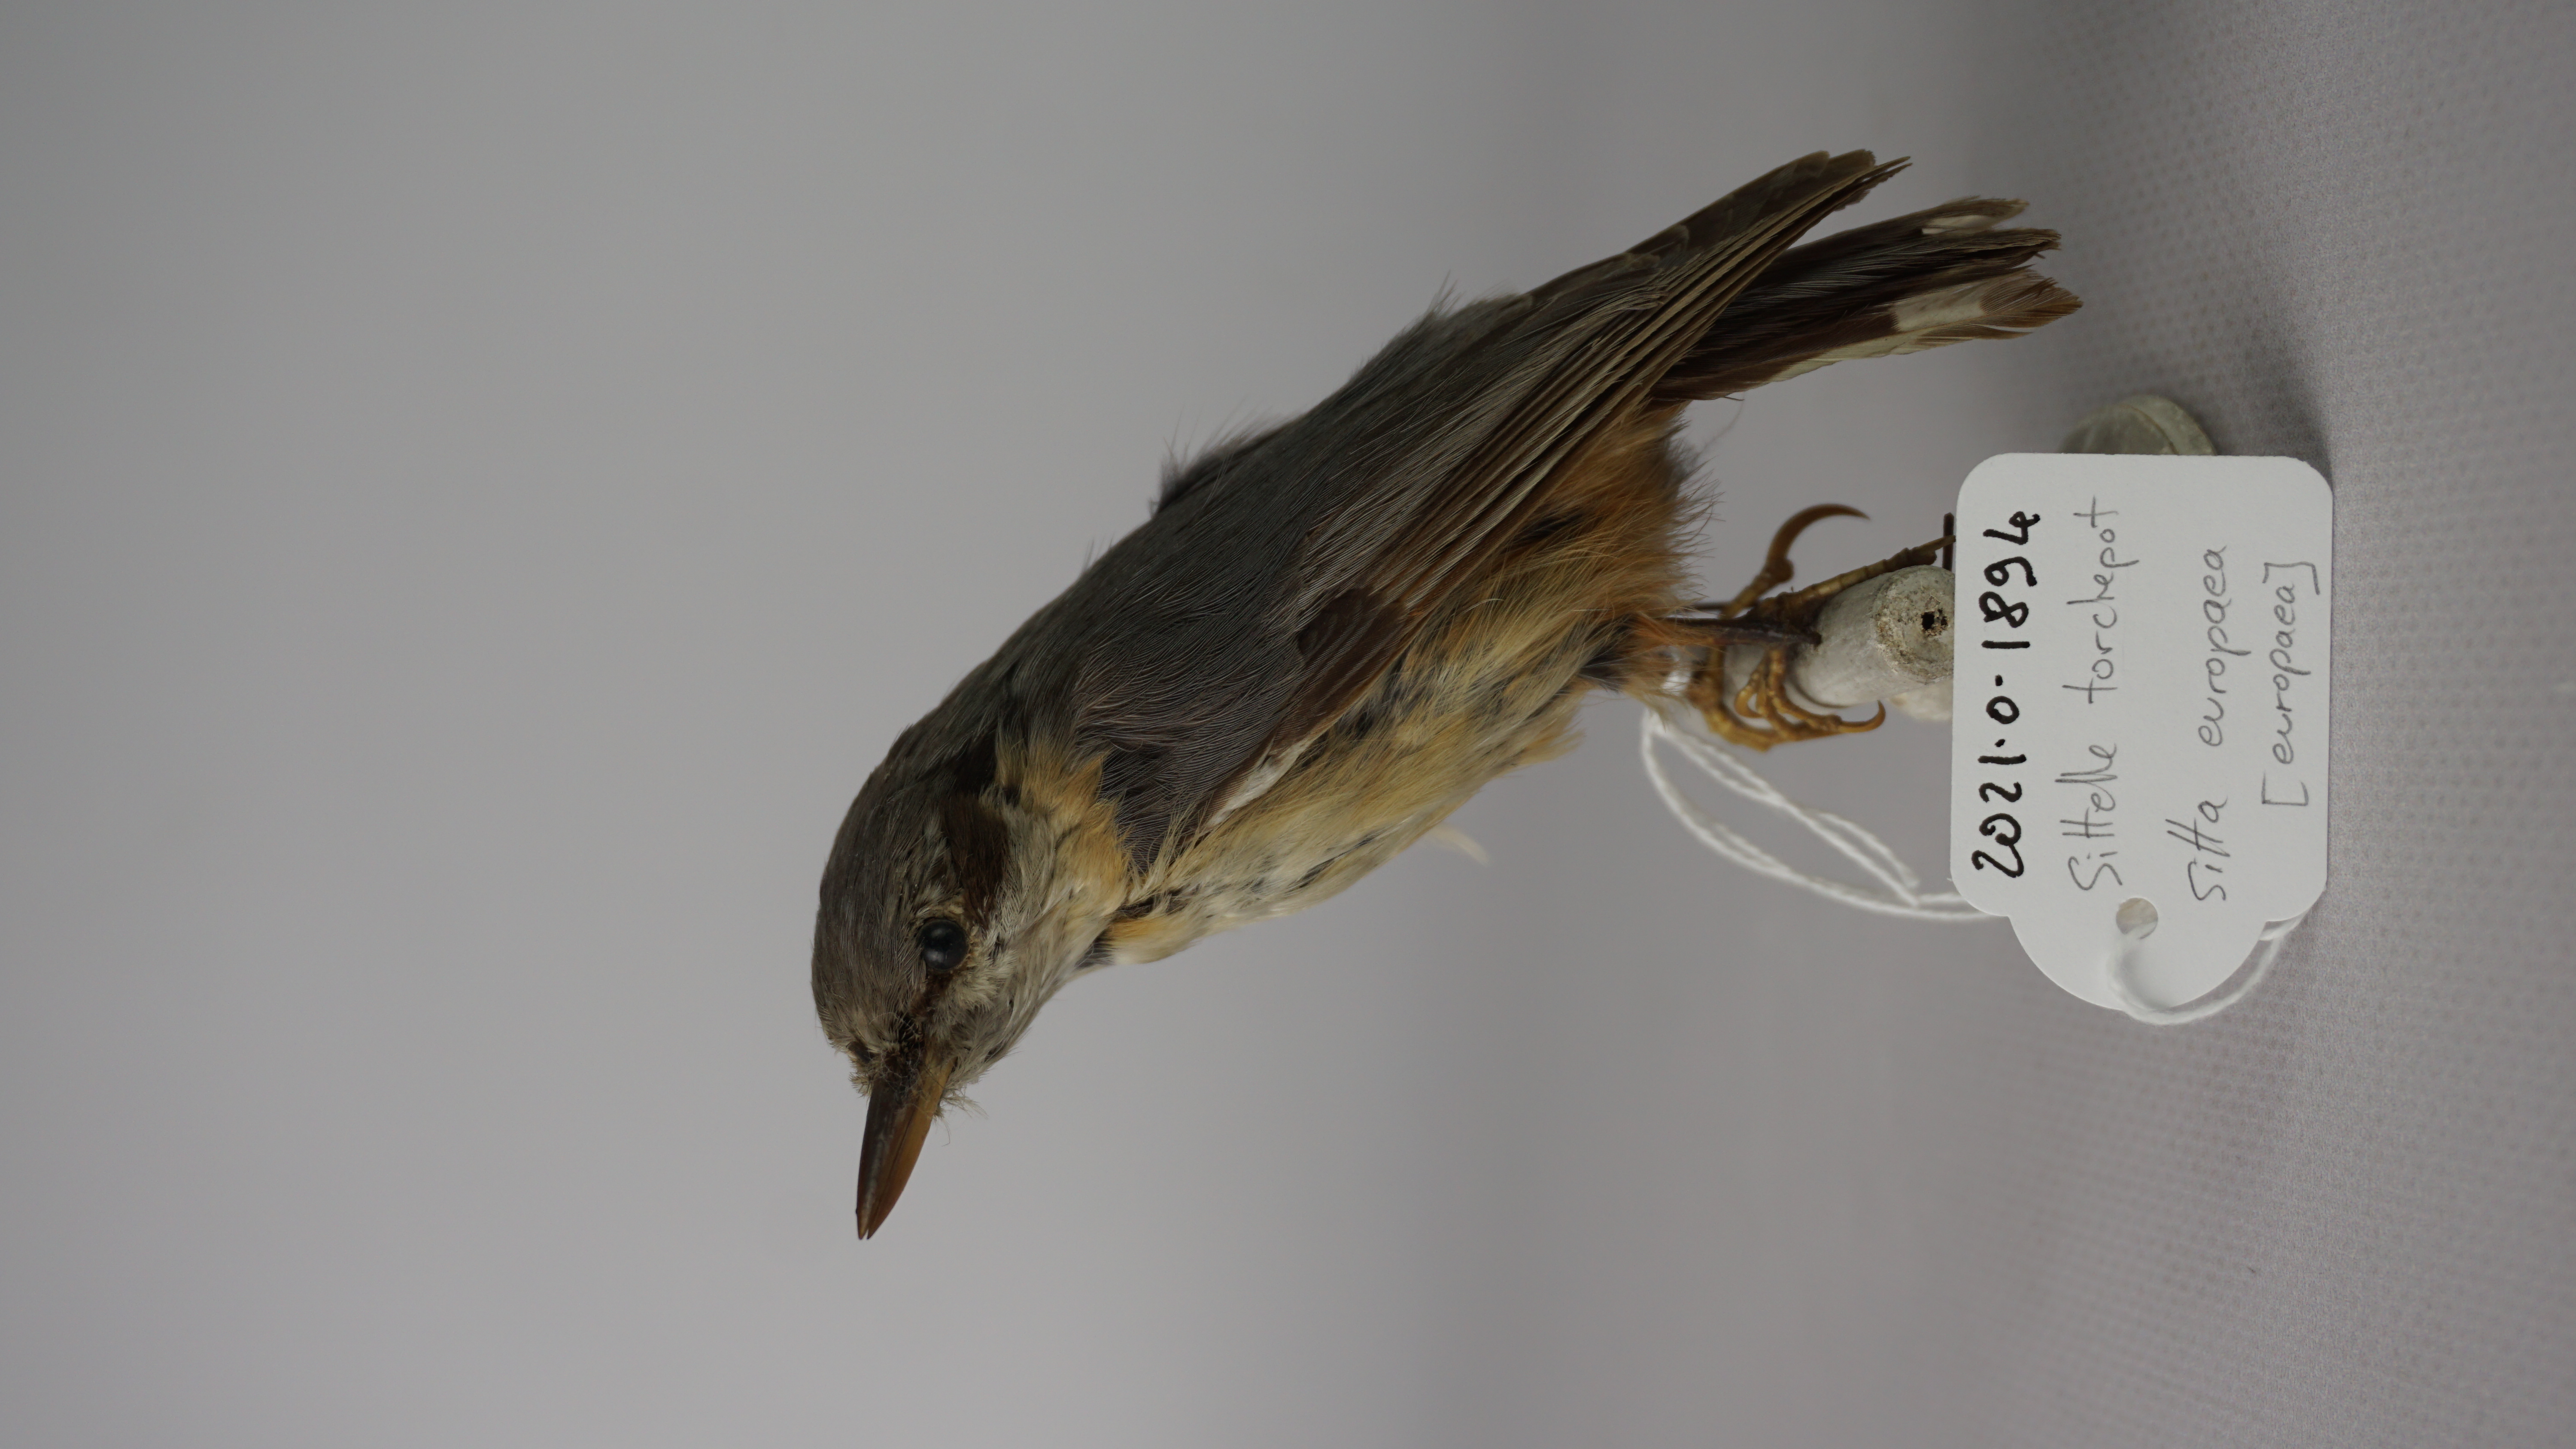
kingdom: Animalia
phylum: Chordata
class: Aves
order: Passeriformes
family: Sittidae
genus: Sitta
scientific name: Sitta europaea
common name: Eurasian nuthatch
